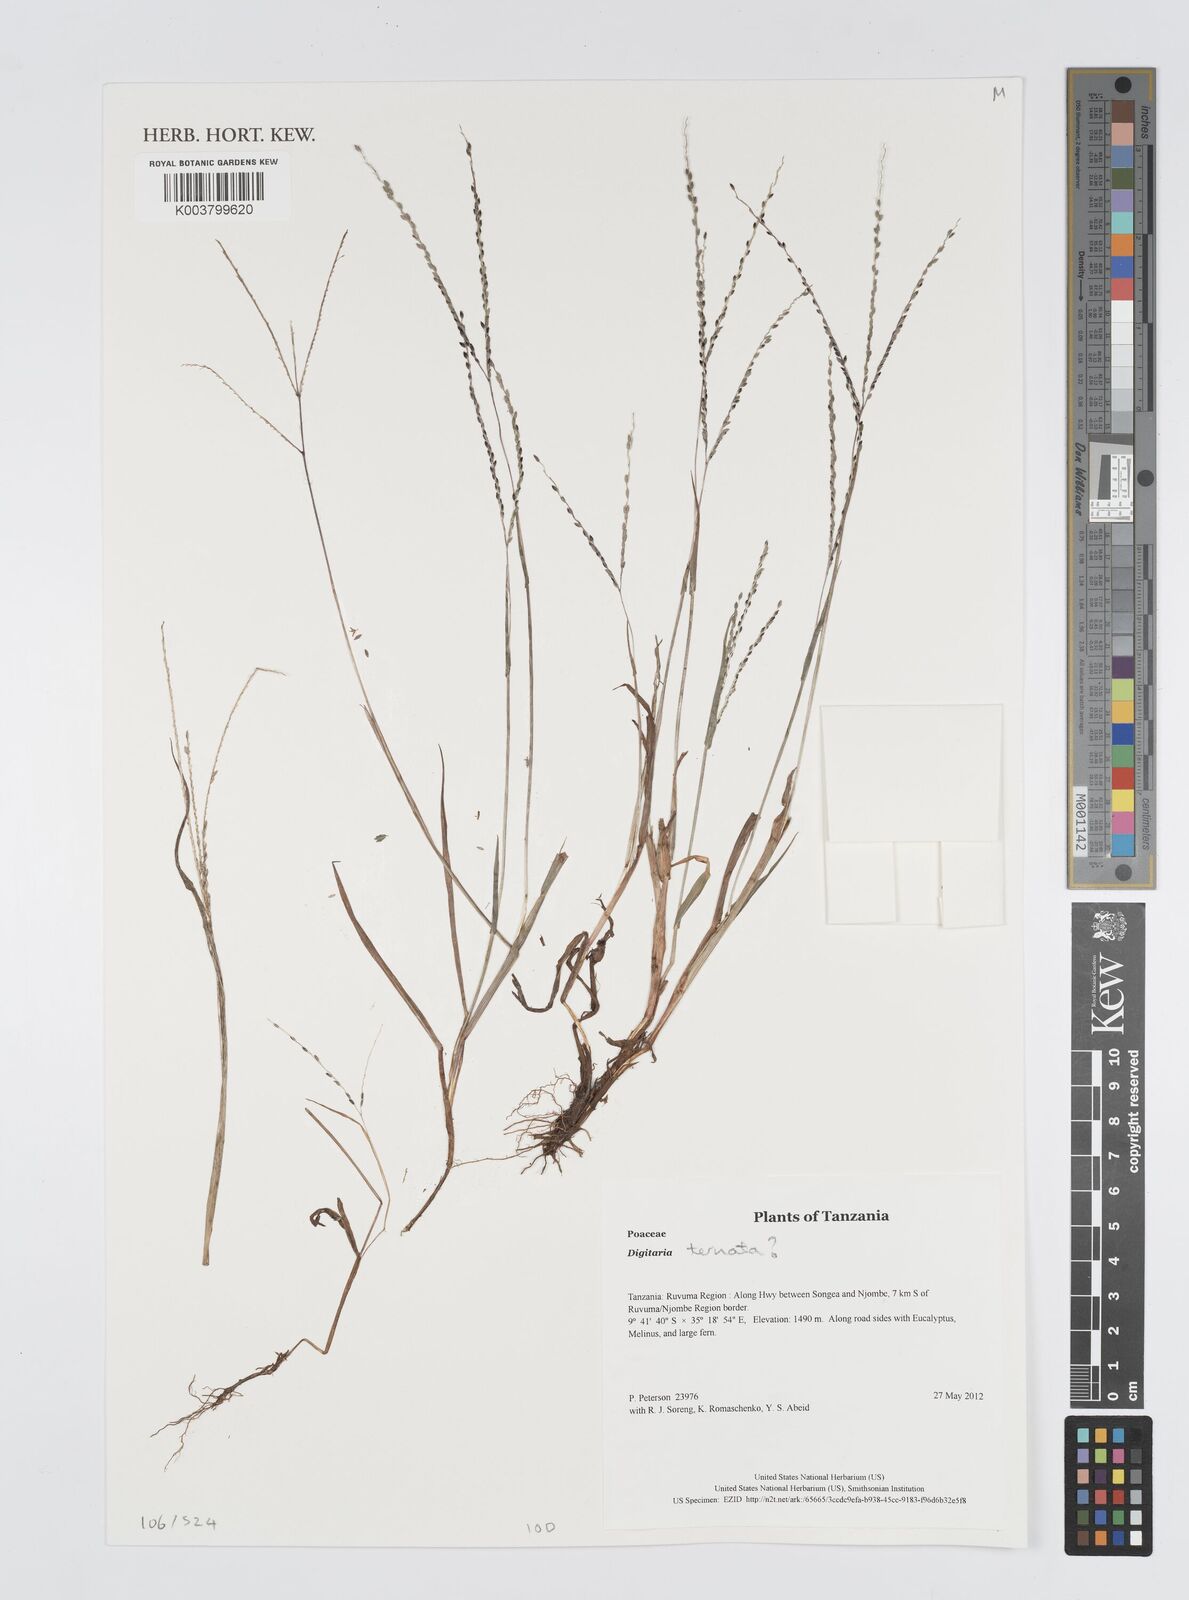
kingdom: Plantae
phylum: Tracheophyta
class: Liliopsida
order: Poales
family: Poaceae
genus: Digitaria
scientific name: Digitaria schmitzii
